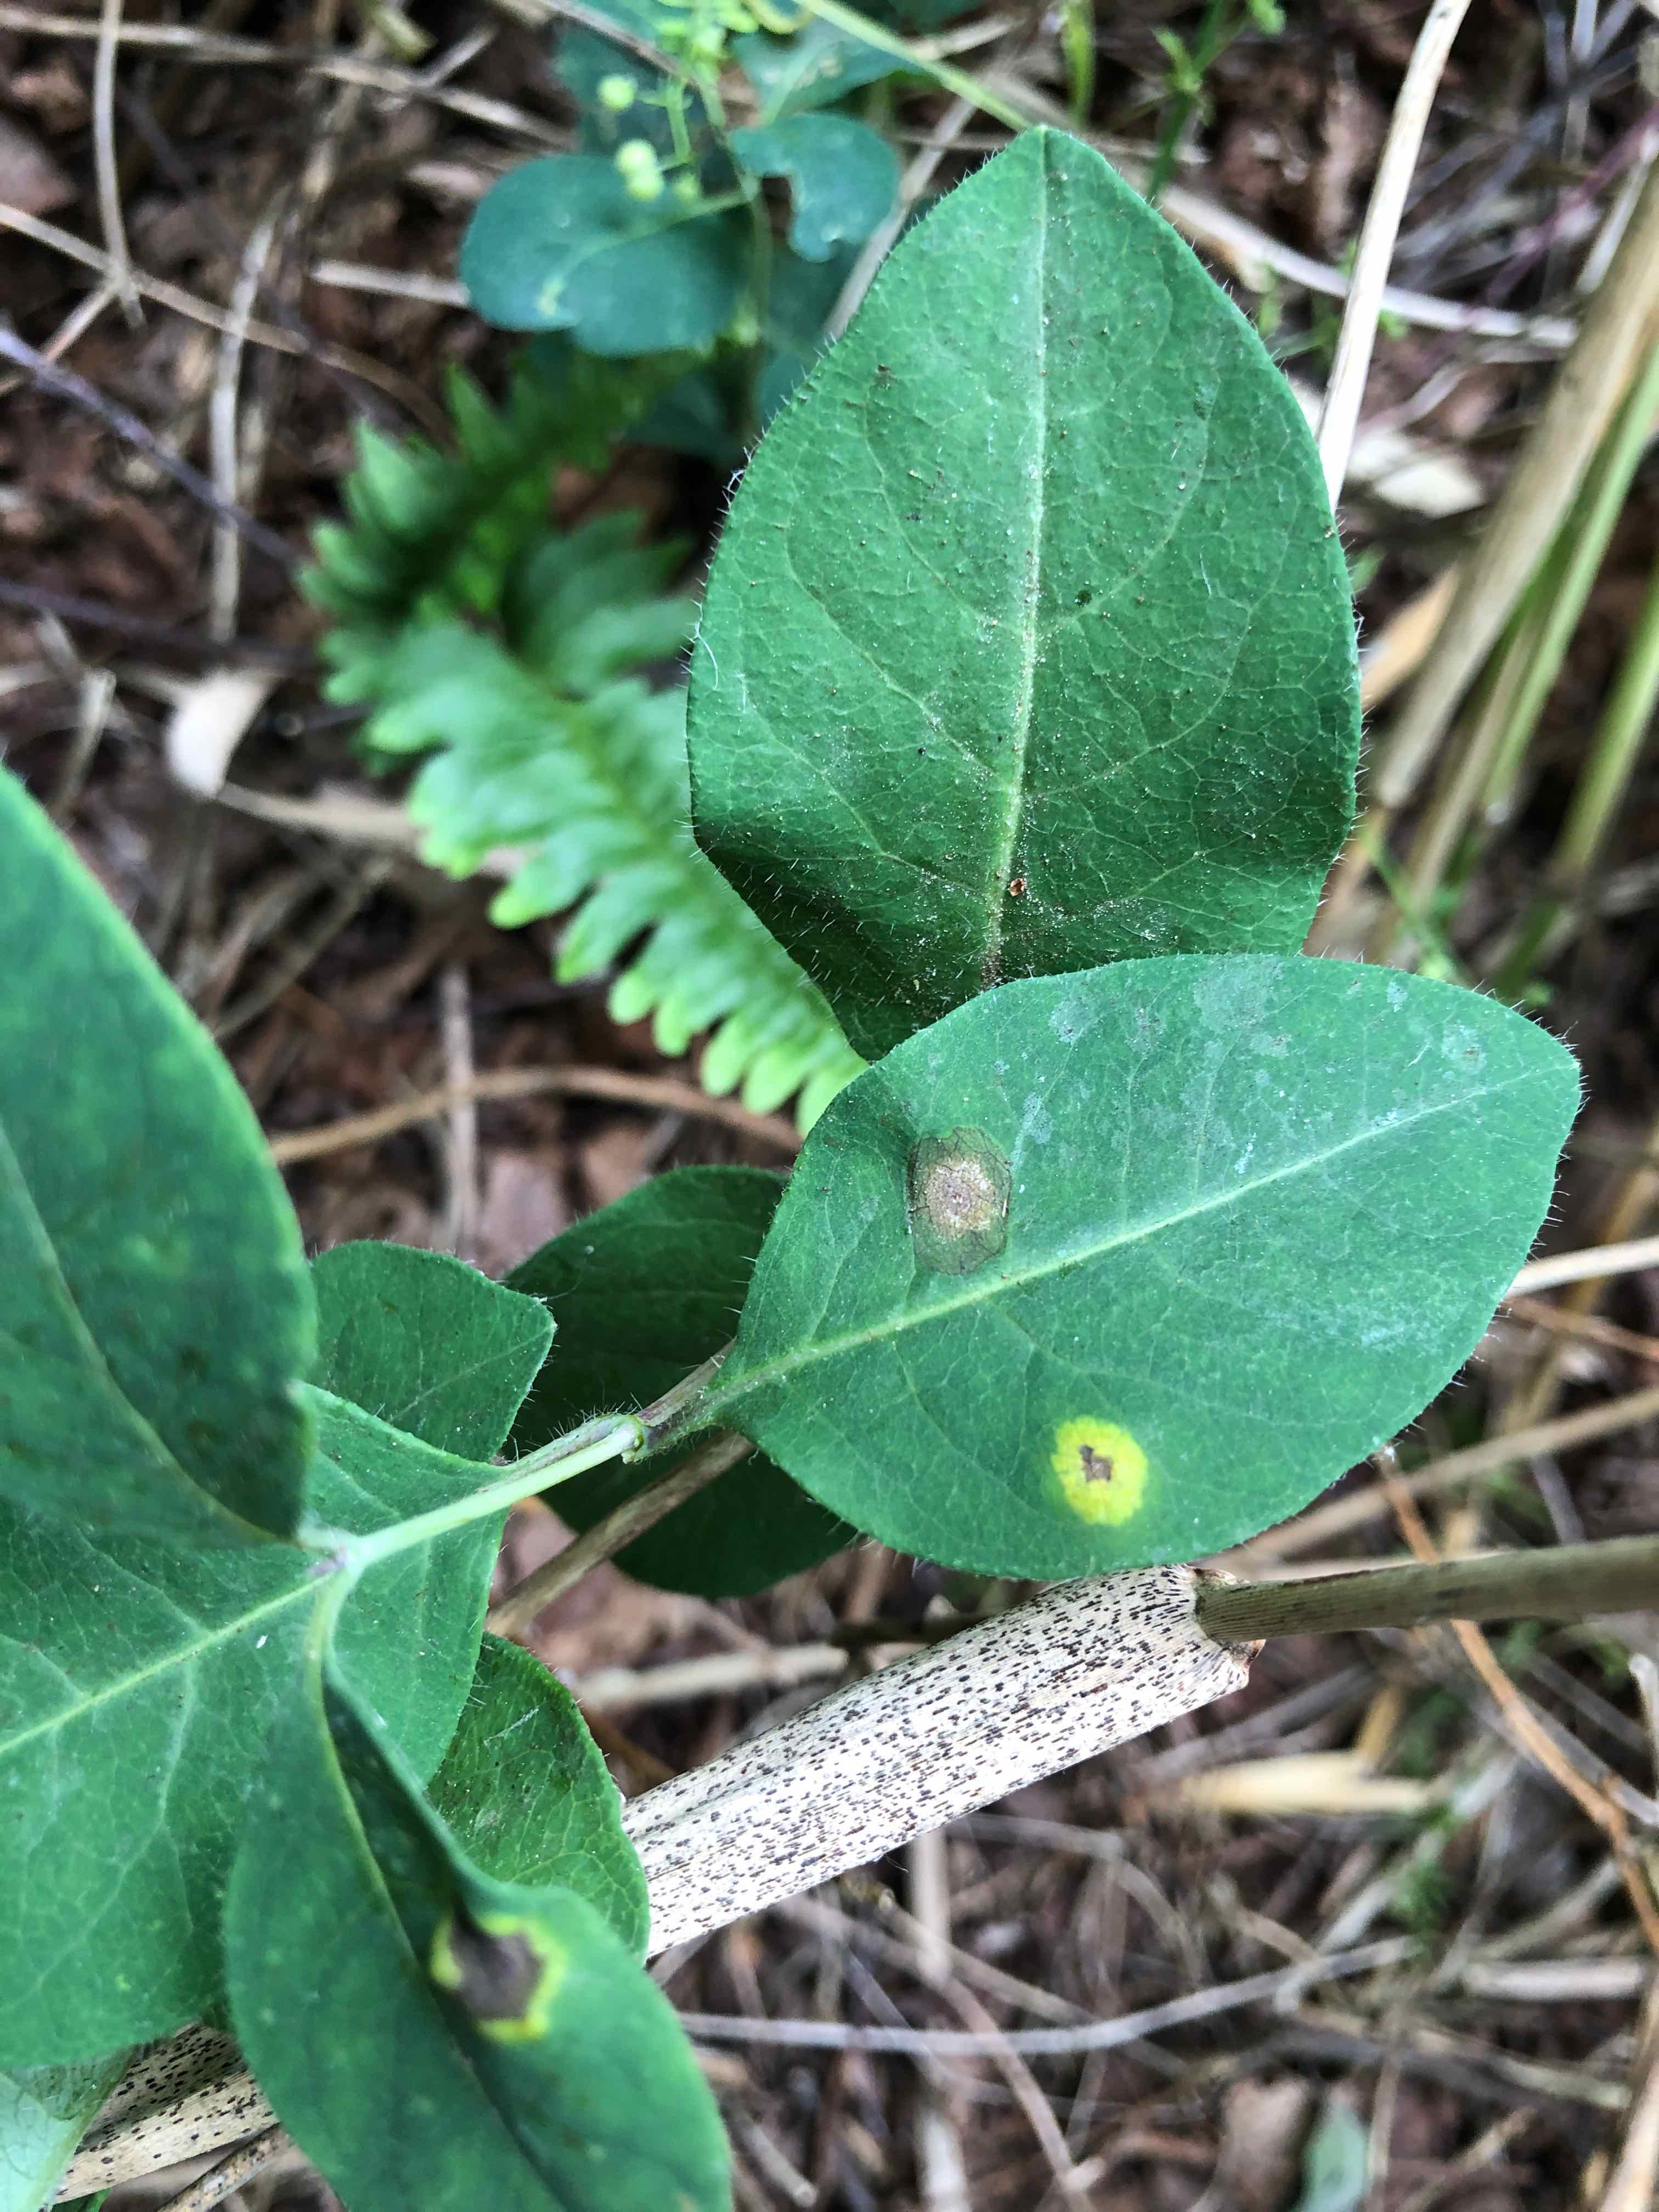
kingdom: Fungi
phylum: Basidiomycota
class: Pucciniomycetes
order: Pucciniales
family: Pucciniaceae
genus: Puccinia
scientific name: Puccinia festucae
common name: gedeblad-tvecellerust
